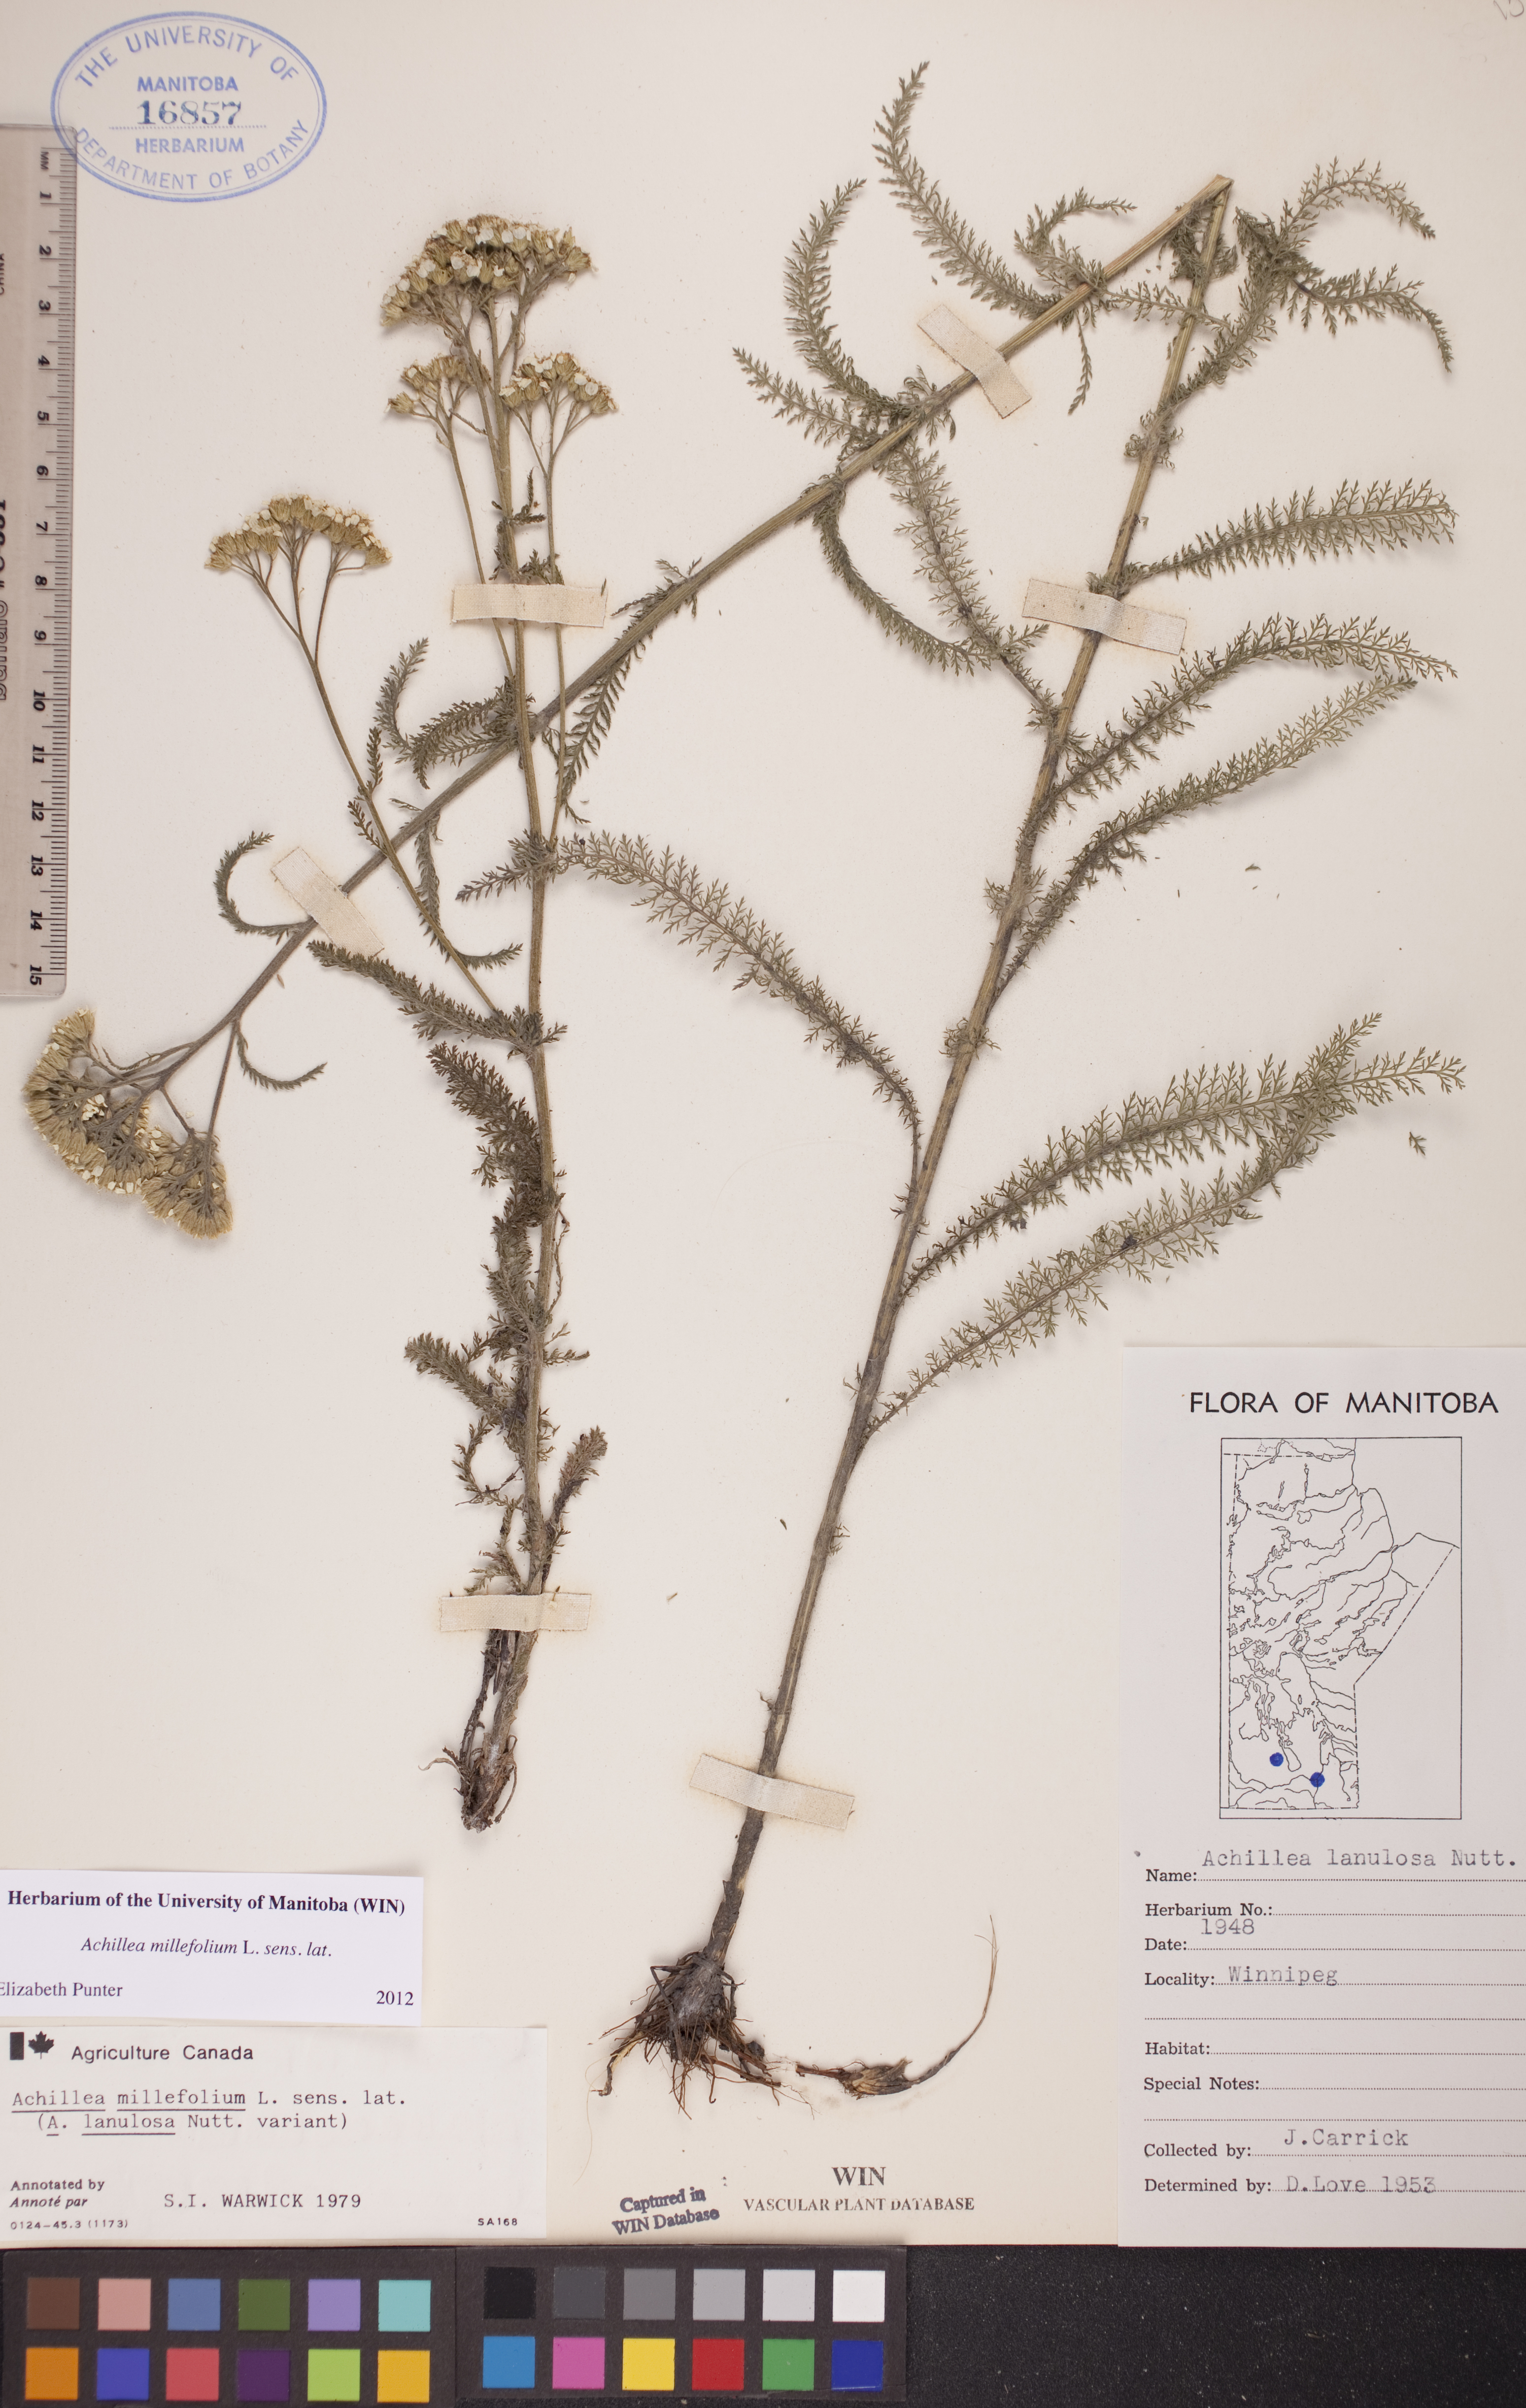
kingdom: Plantae
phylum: Tracheophyta
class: Magnoliopsida
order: Asterales
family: Asteraceae
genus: Achillea
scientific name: Achillea millefolium
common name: Yarrow
